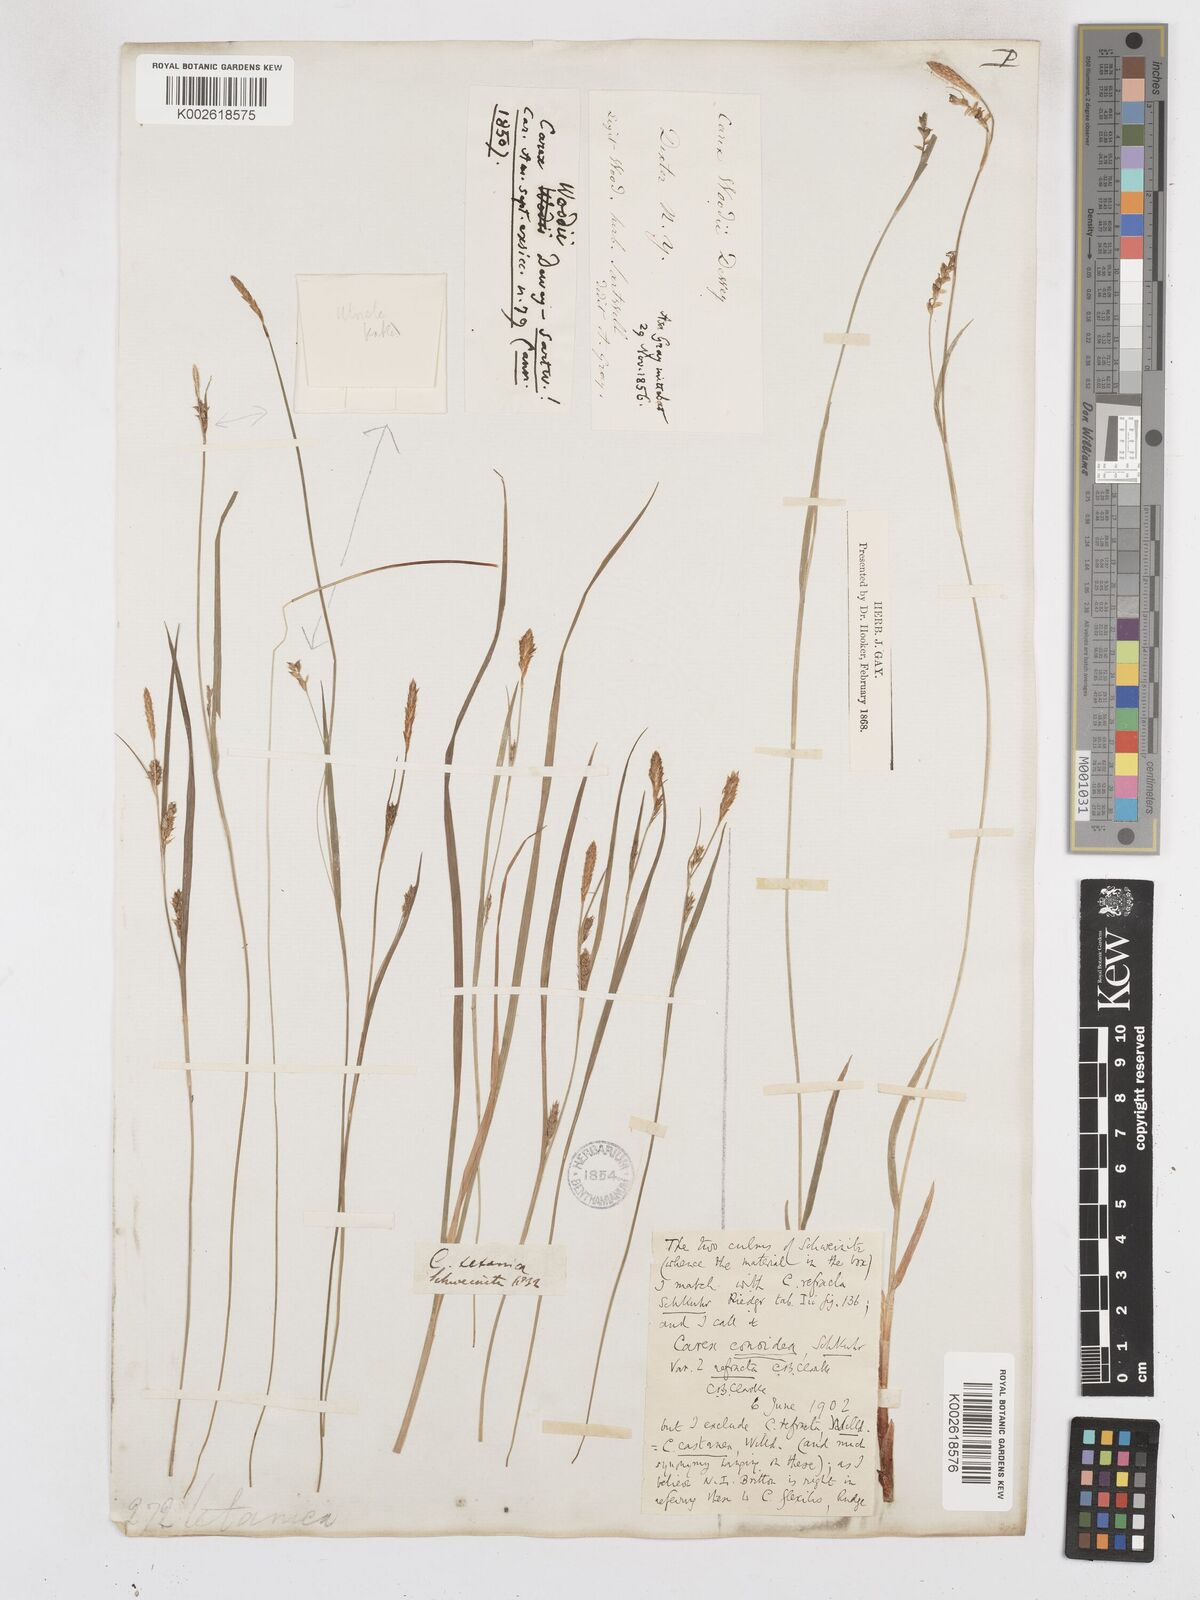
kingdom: Plantae
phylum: Tracheophyta
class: Liliopsida
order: Poales
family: Cyperaceae
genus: Carex
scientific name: Carex woodii
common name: Wood's sedge
